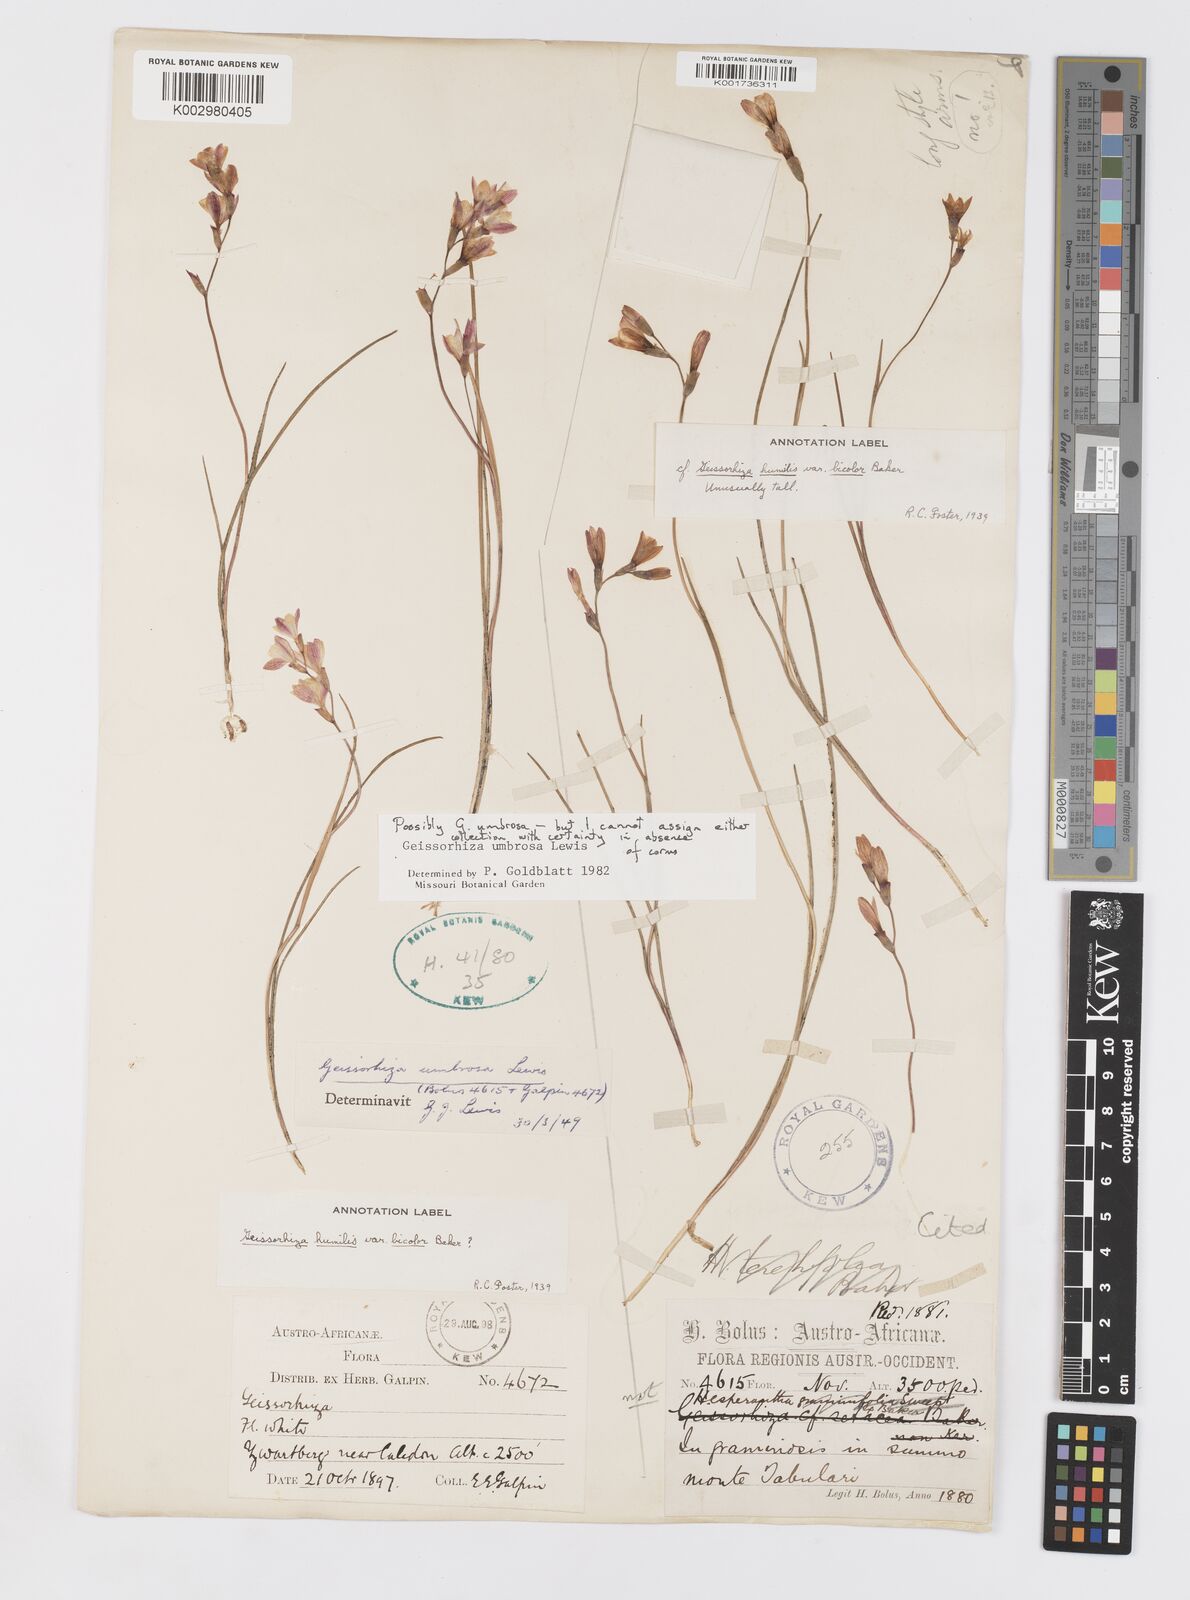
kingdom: Plantae
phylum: Tracheophyta
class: Liliopsida
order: Asparagales
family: Iridaceae
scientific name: Iridaceae
